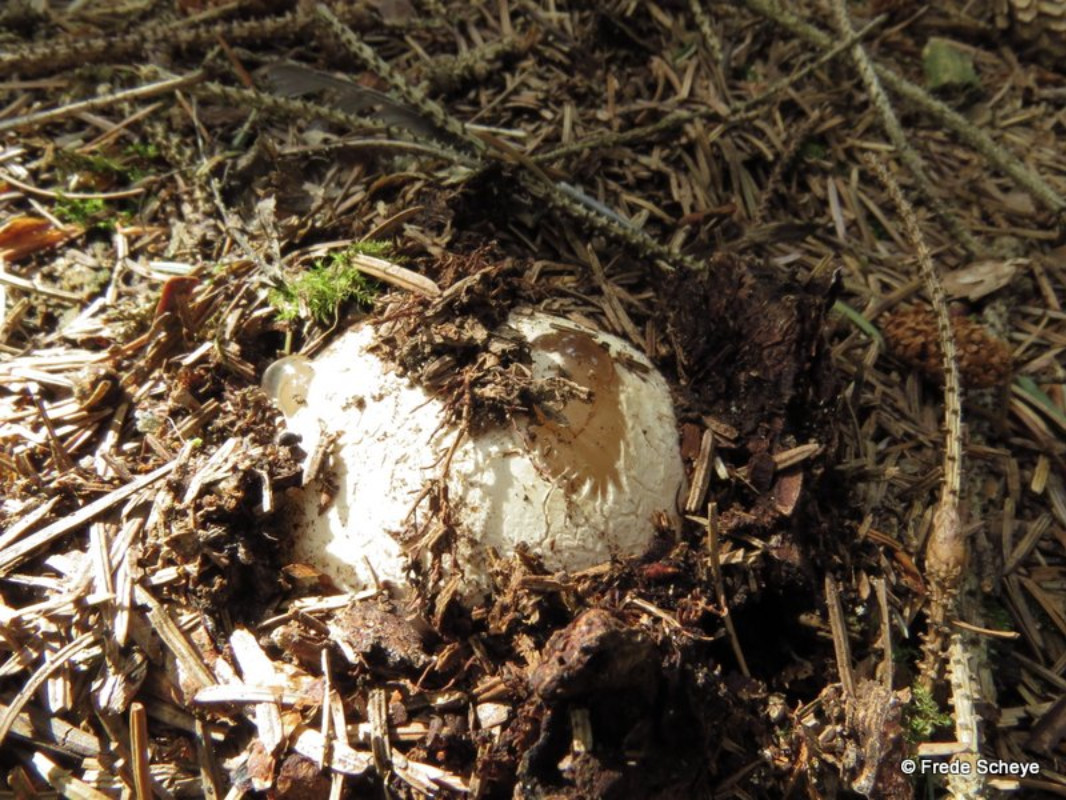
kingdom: Fungi
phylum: Basidiomycota
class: Agaricomycetes
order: Phallales
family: Phallaceae
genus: Phallus
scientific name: Phallus impudicus
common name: almindelig stinksvamp
